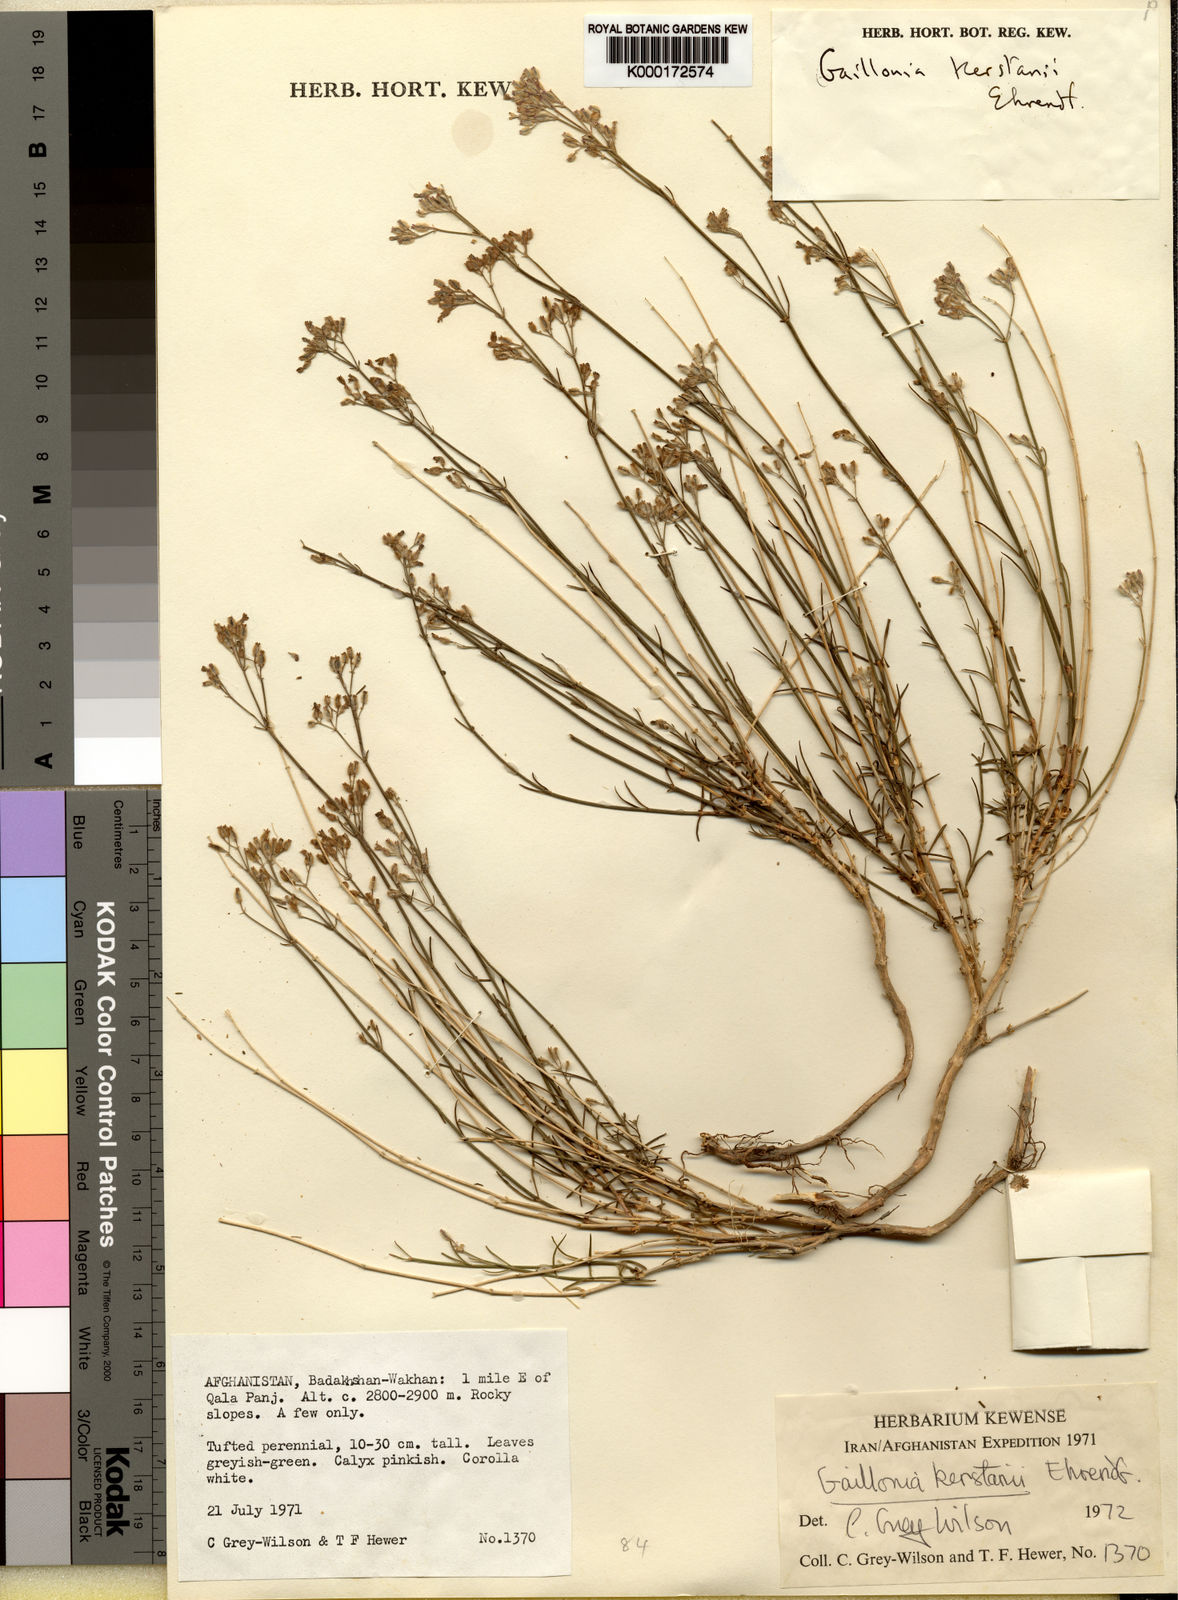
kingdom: Plantae
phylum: Tracheophyta
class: Magnoliopsida
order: Gentianales
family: Rubiaceae
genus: Plocama
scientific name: Plocama asperuliformis
